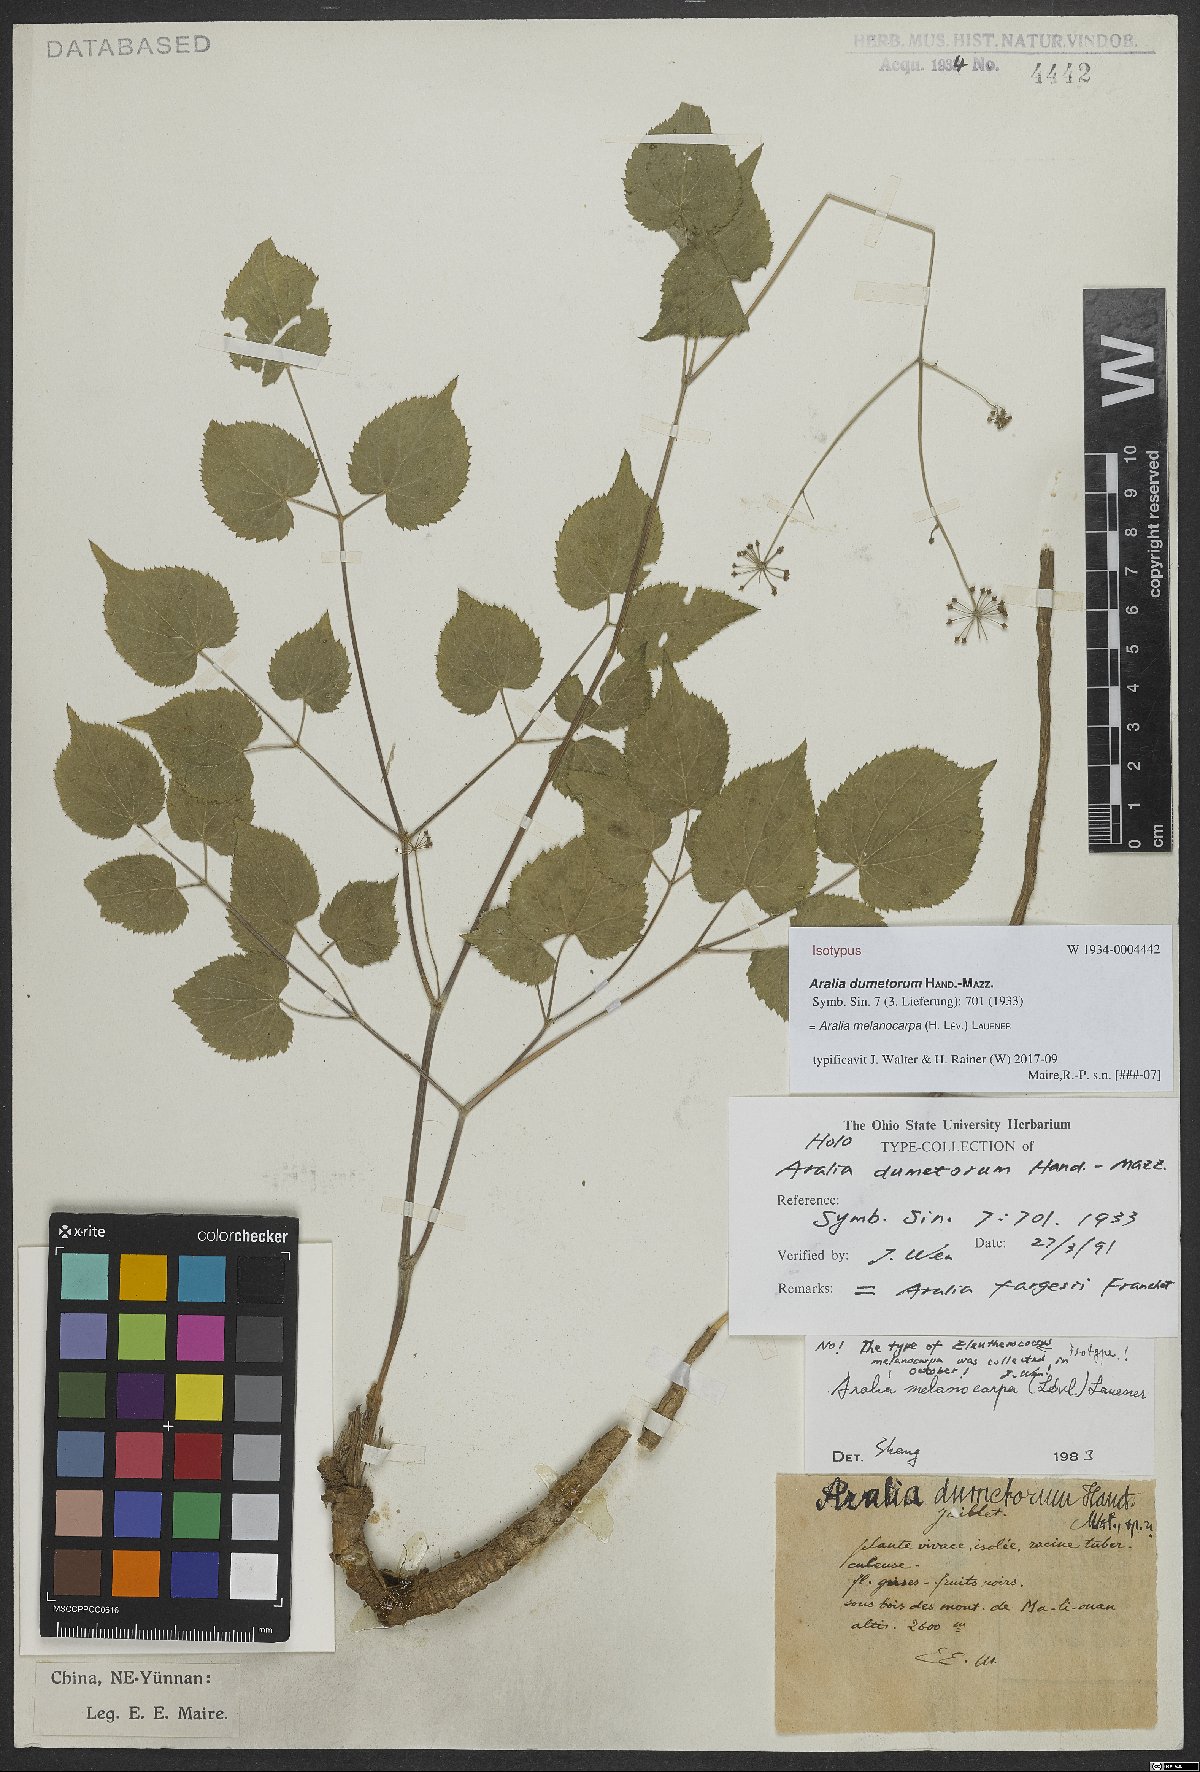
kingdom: Plantae
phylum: Tracheophyta
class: Magnoliopsida
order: Apiales
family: Araliaceae
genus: Aralia
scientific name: Aralia melanocarpa
